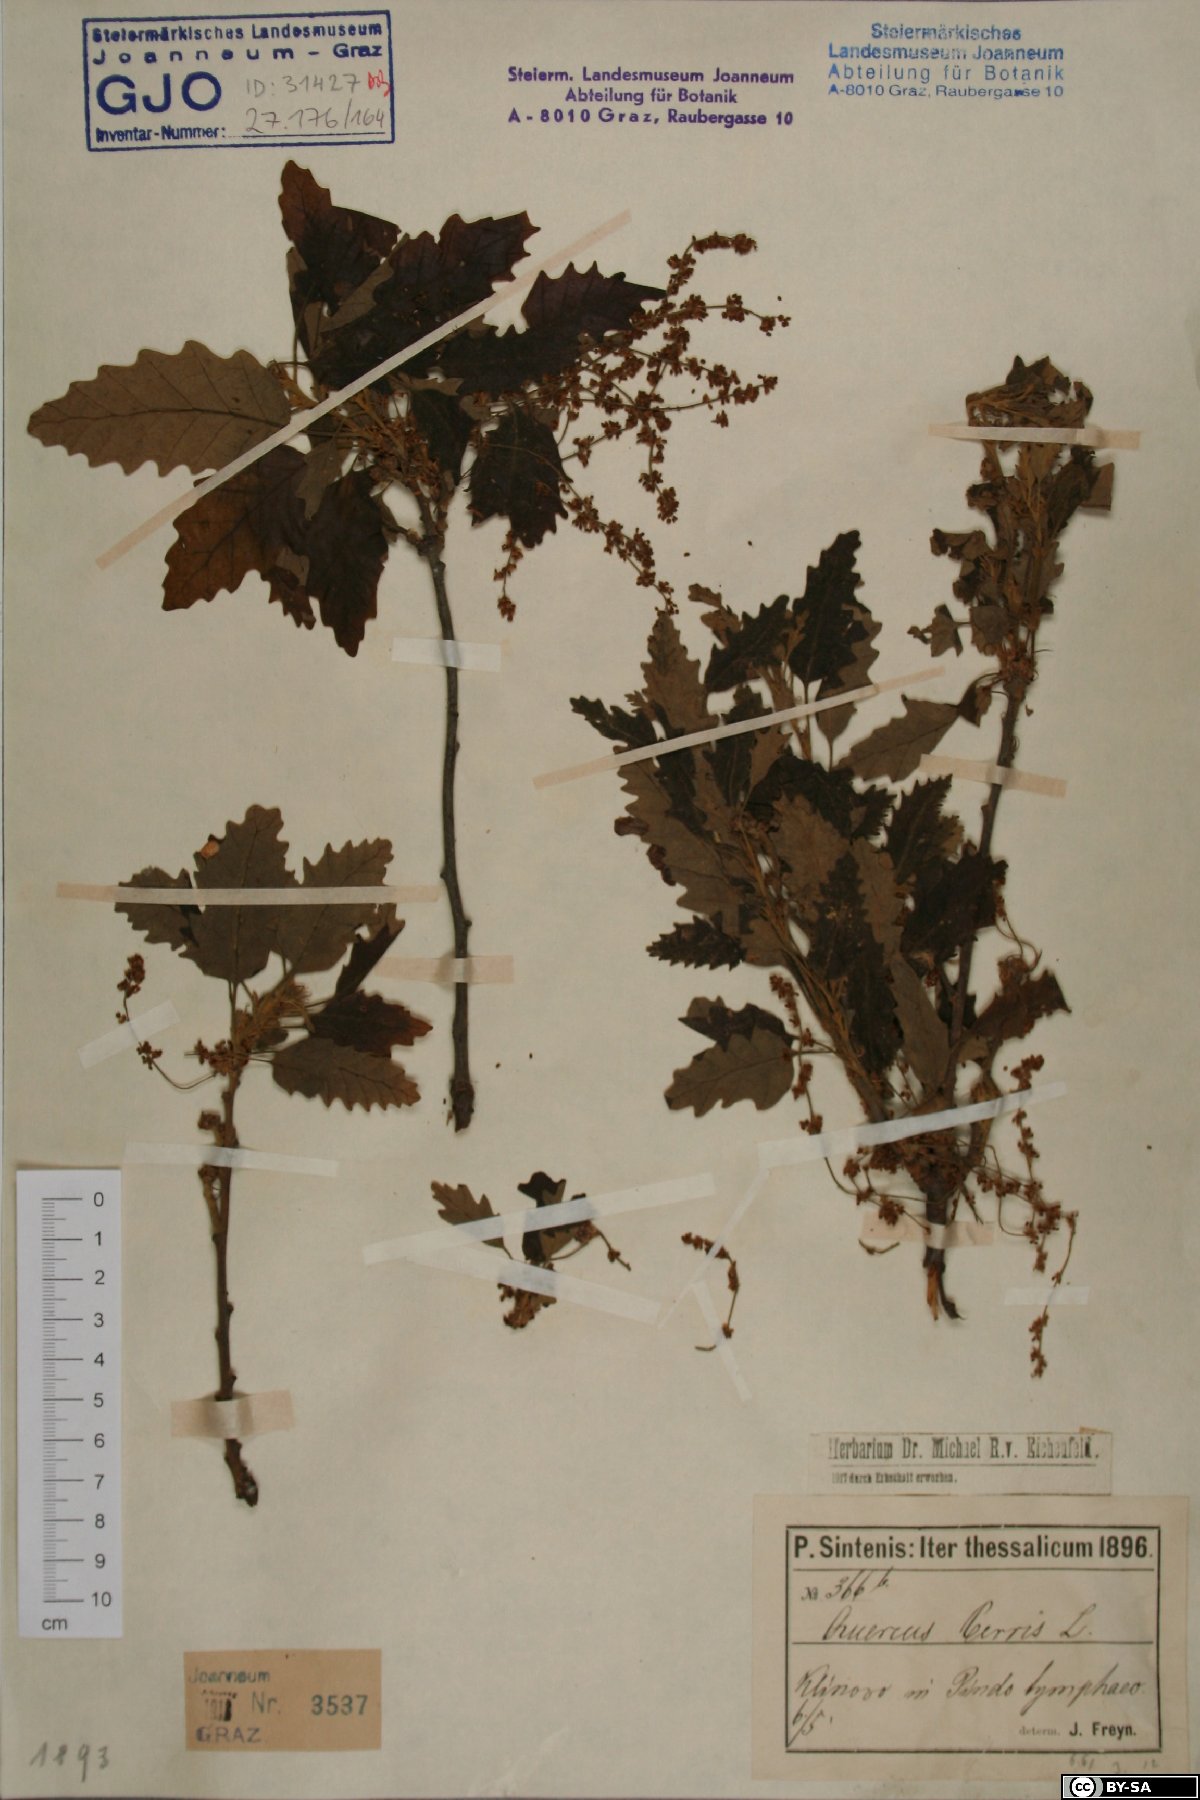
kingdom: Plantae
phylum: Tracheophyta
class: Magnoliopsida
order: Fagales
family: Fagaceae
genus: Quercus
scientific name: Quercus cerris
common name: Turkey oak
